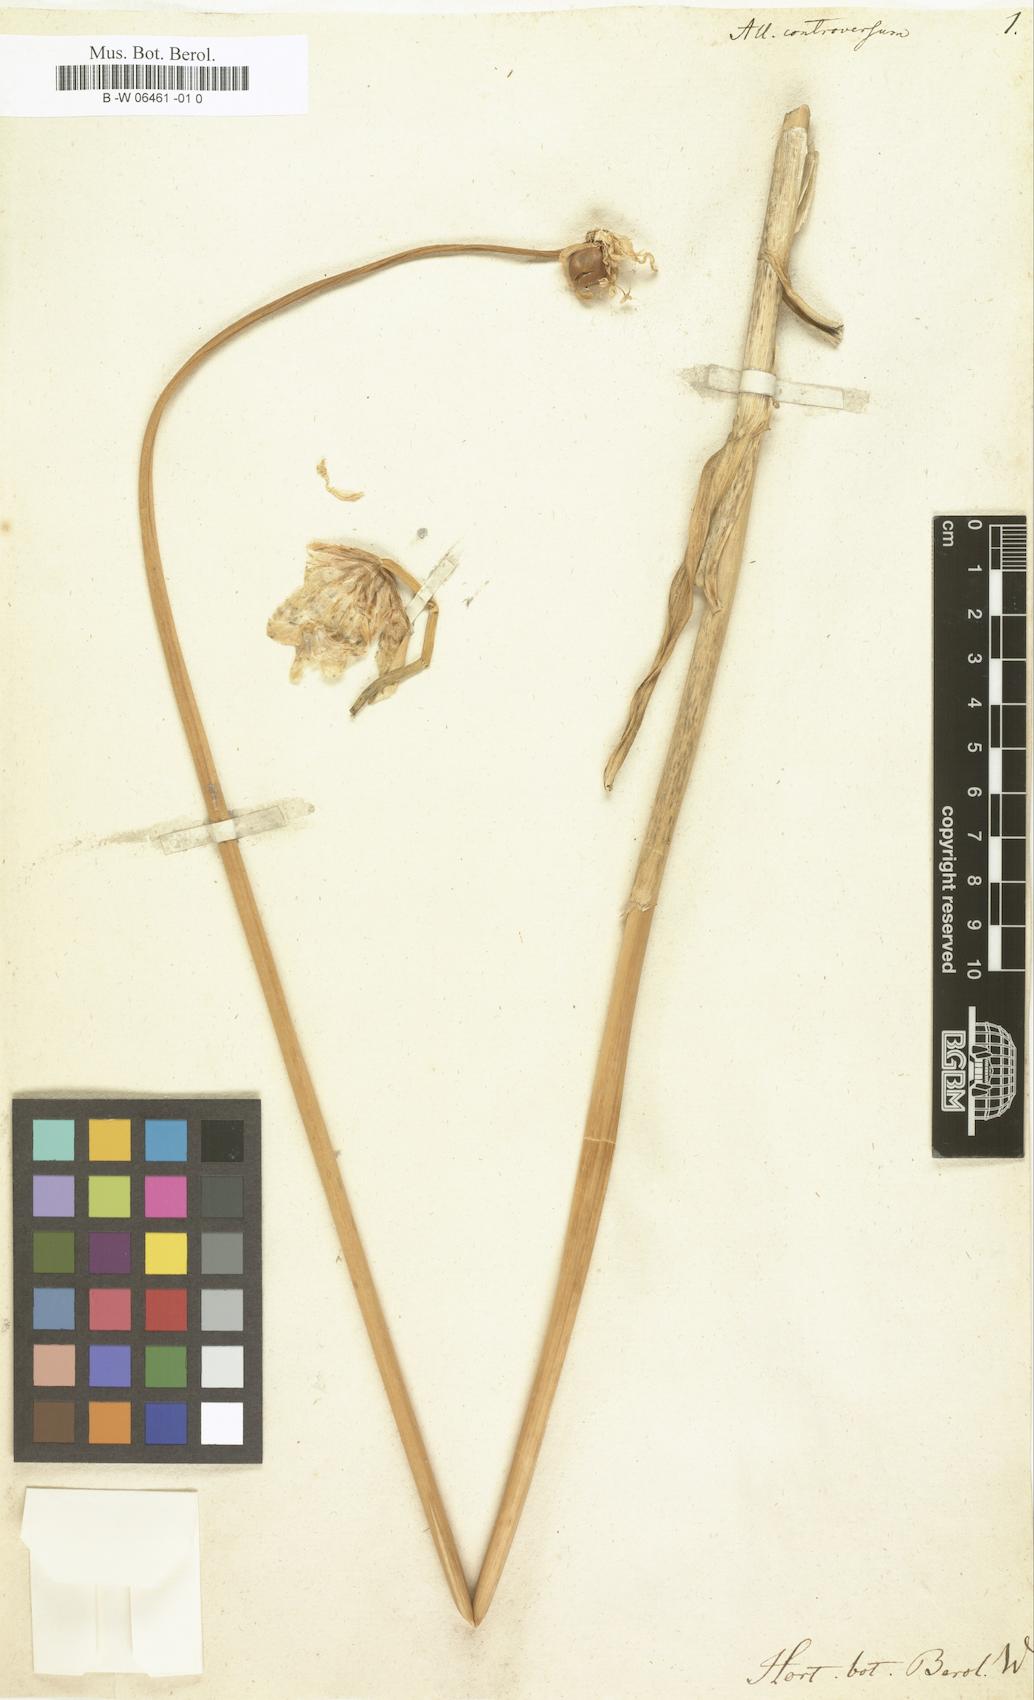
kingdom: Plantae
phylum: Tracheophyta
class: Liliopsida
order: Asparagales
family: Amaryllidaceae
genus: Allium
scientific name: Allium
